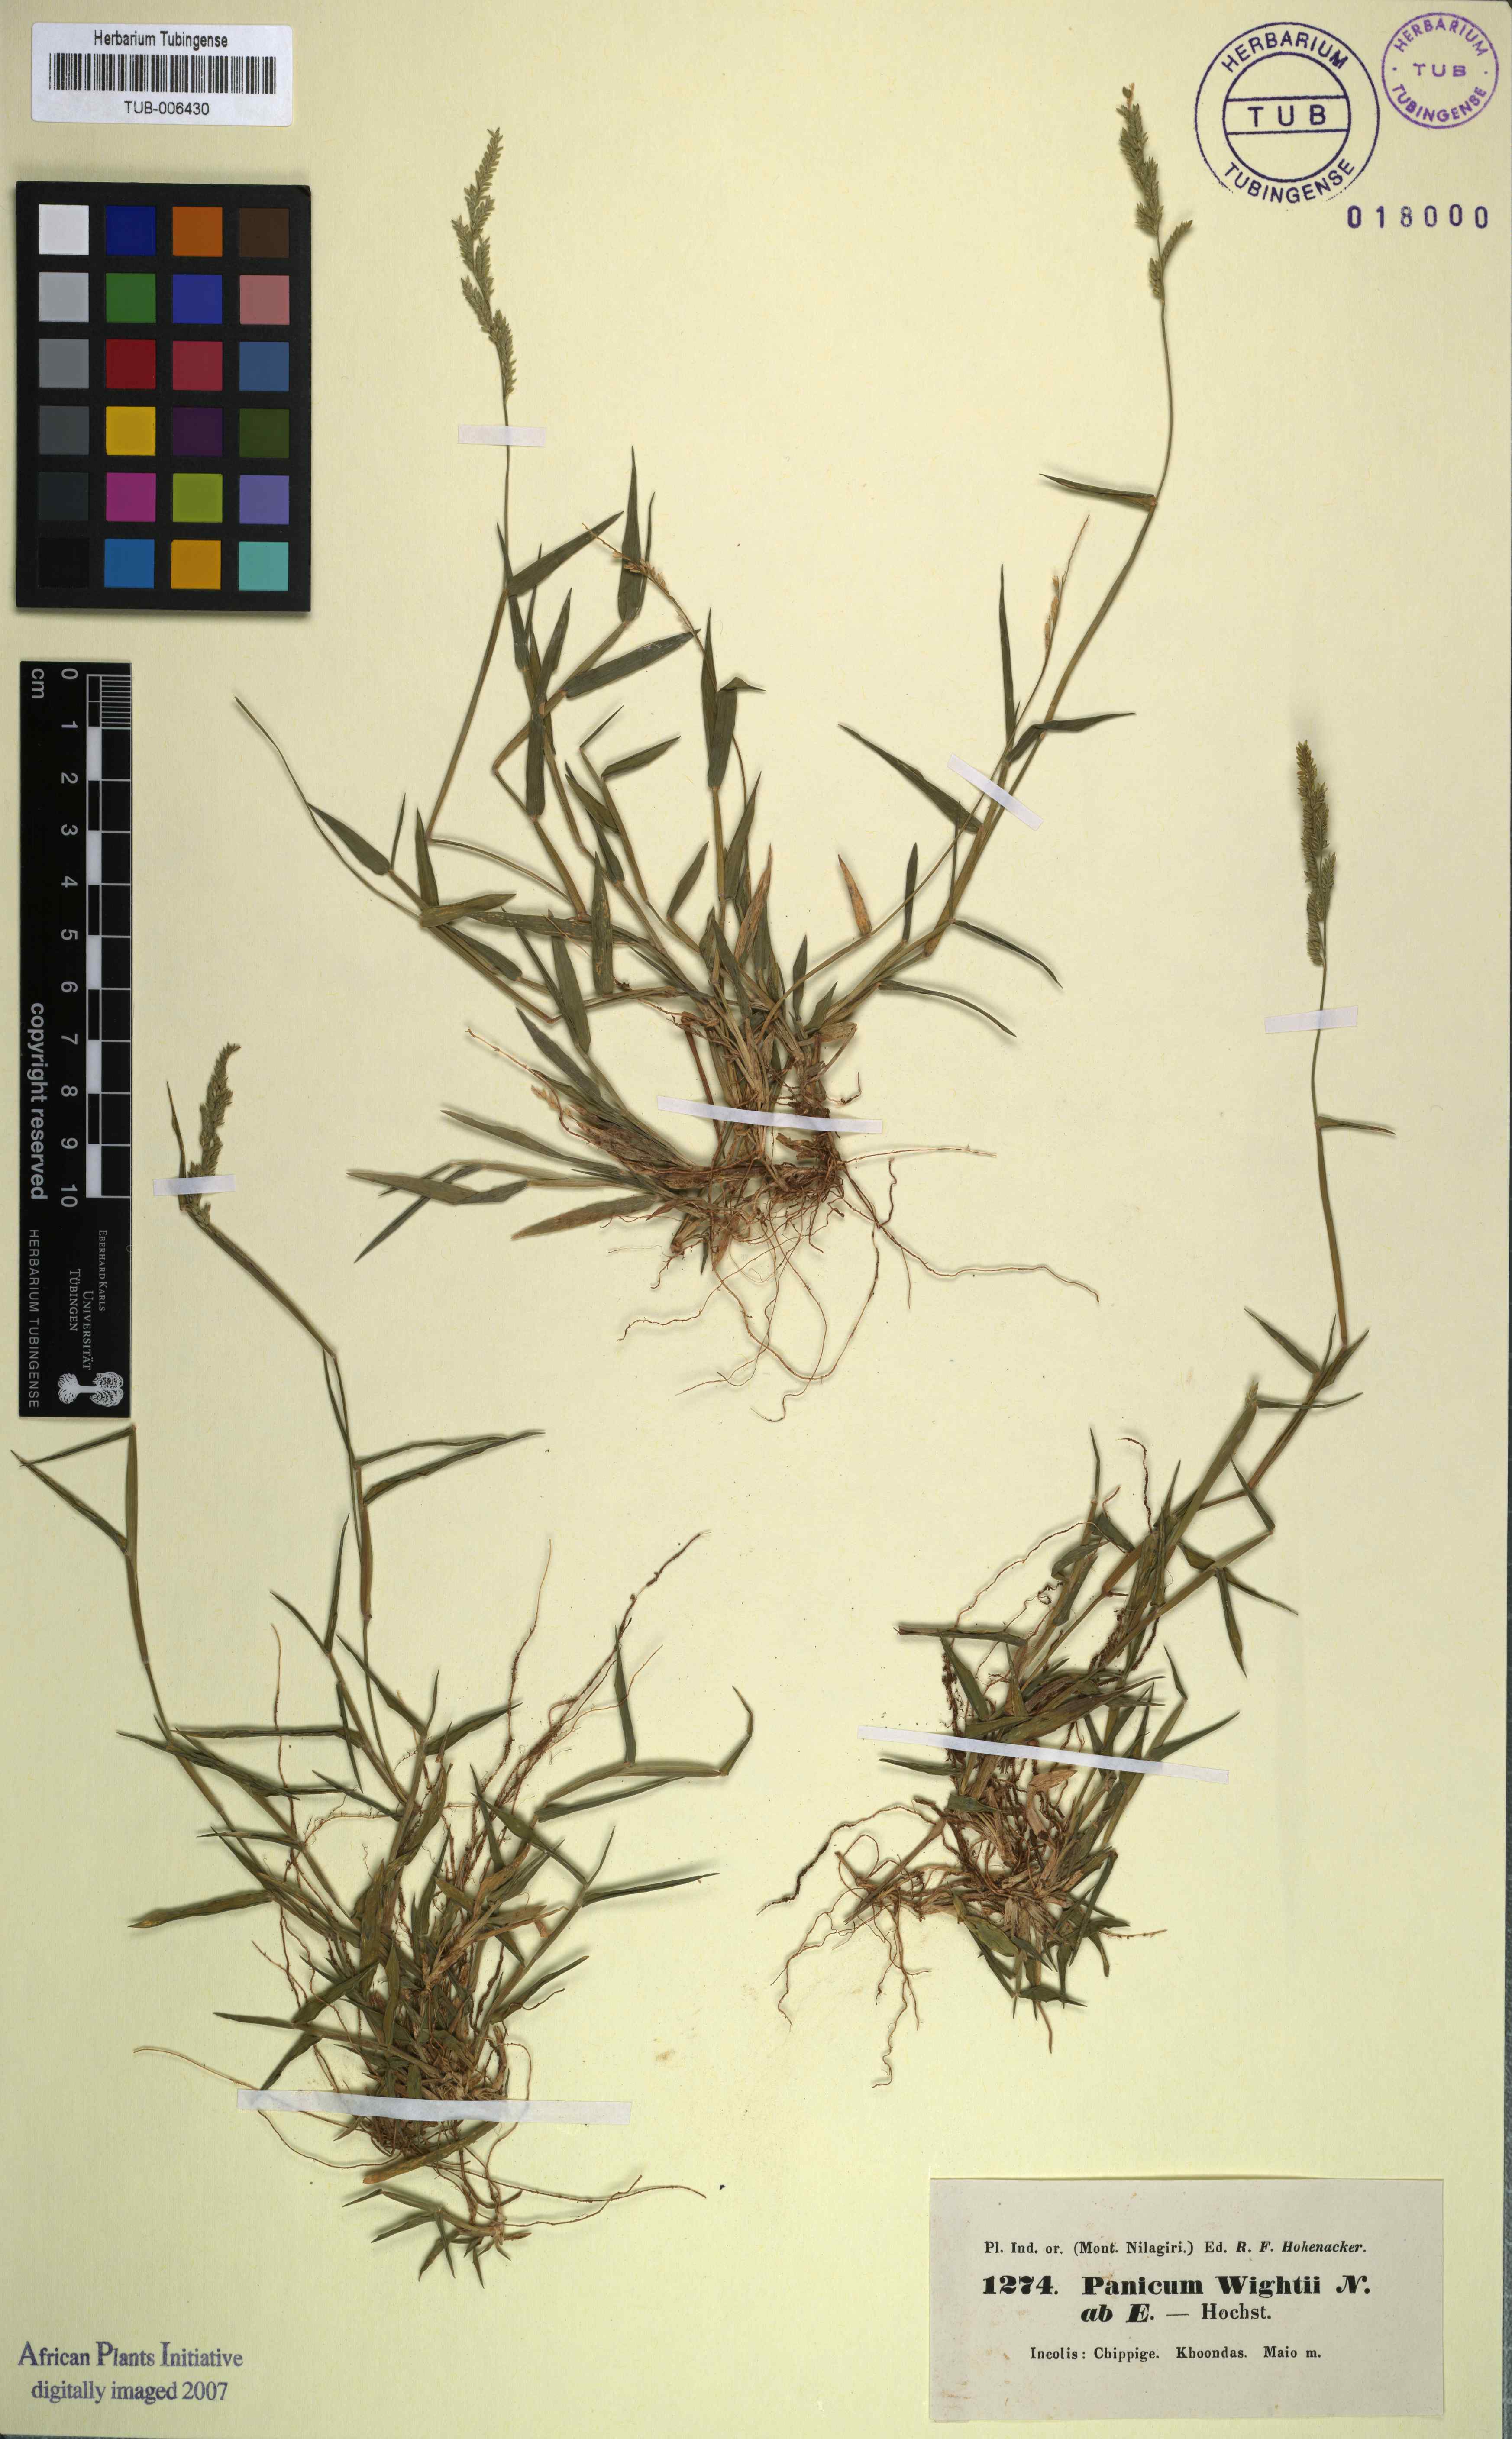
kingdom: Plantae
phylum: Tracheophyta
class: Liliopsida
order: Poales
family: Poaceae
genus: Moorochloa
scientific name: Moorochloa eruciformis
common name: Sweet signalgrass
